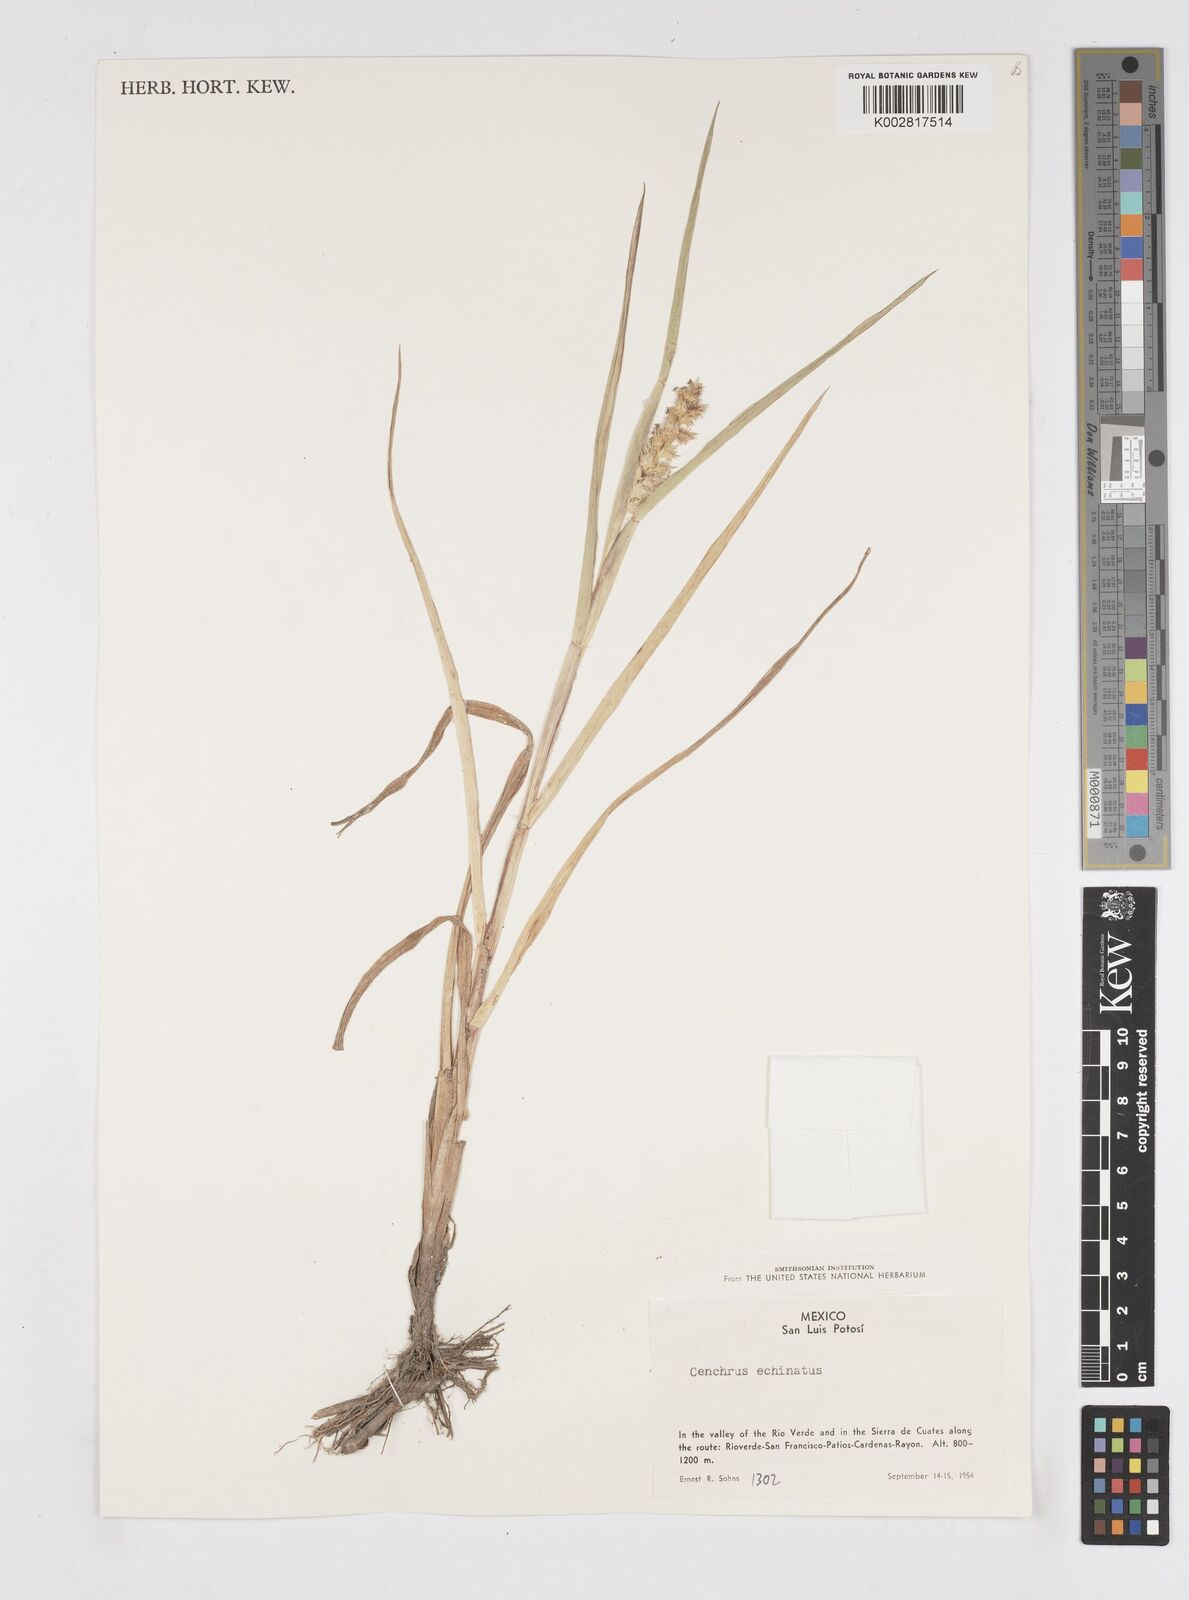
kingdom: Plantae
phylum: Tracheophyta
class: Liliopsida
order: Poales
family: Poaceae
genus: Cenchrus
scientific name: Cenchrus
